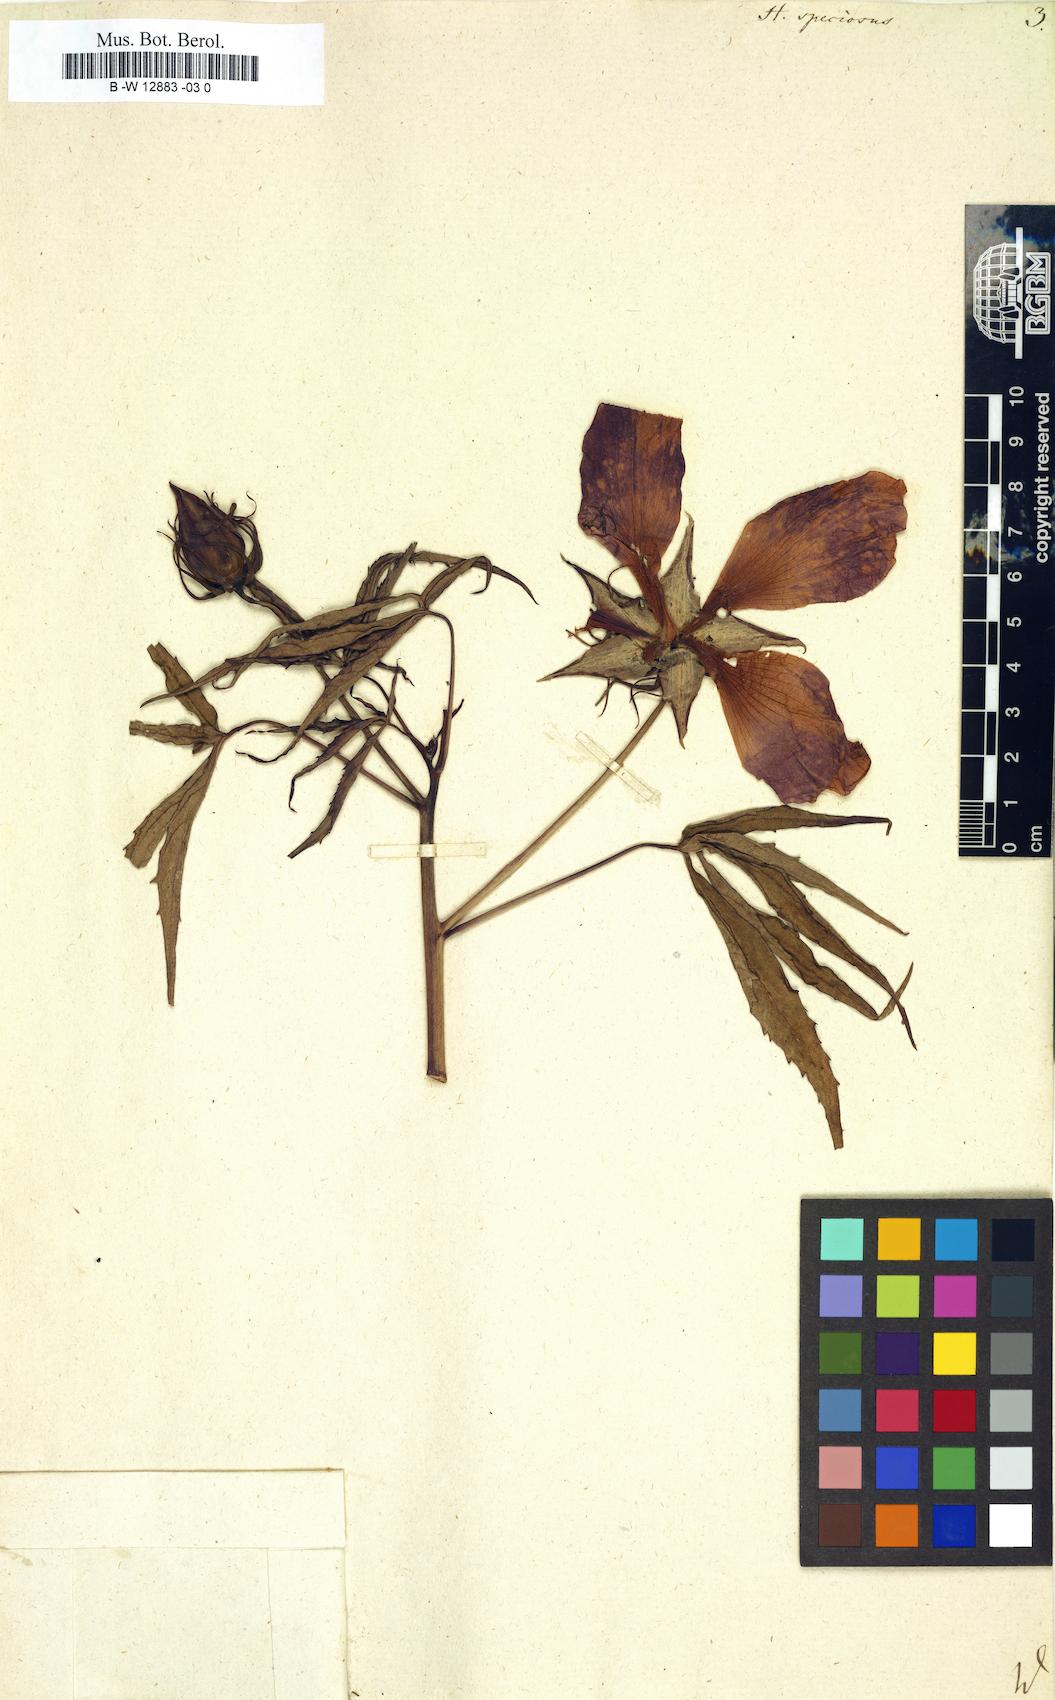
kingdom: Plantae
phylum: Tracheophyta
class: Magnoliopsida
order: Malvales
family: Malvaceae
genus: Malvaviscus
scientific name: Malvaviscus arboreus
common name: Wax mallow
